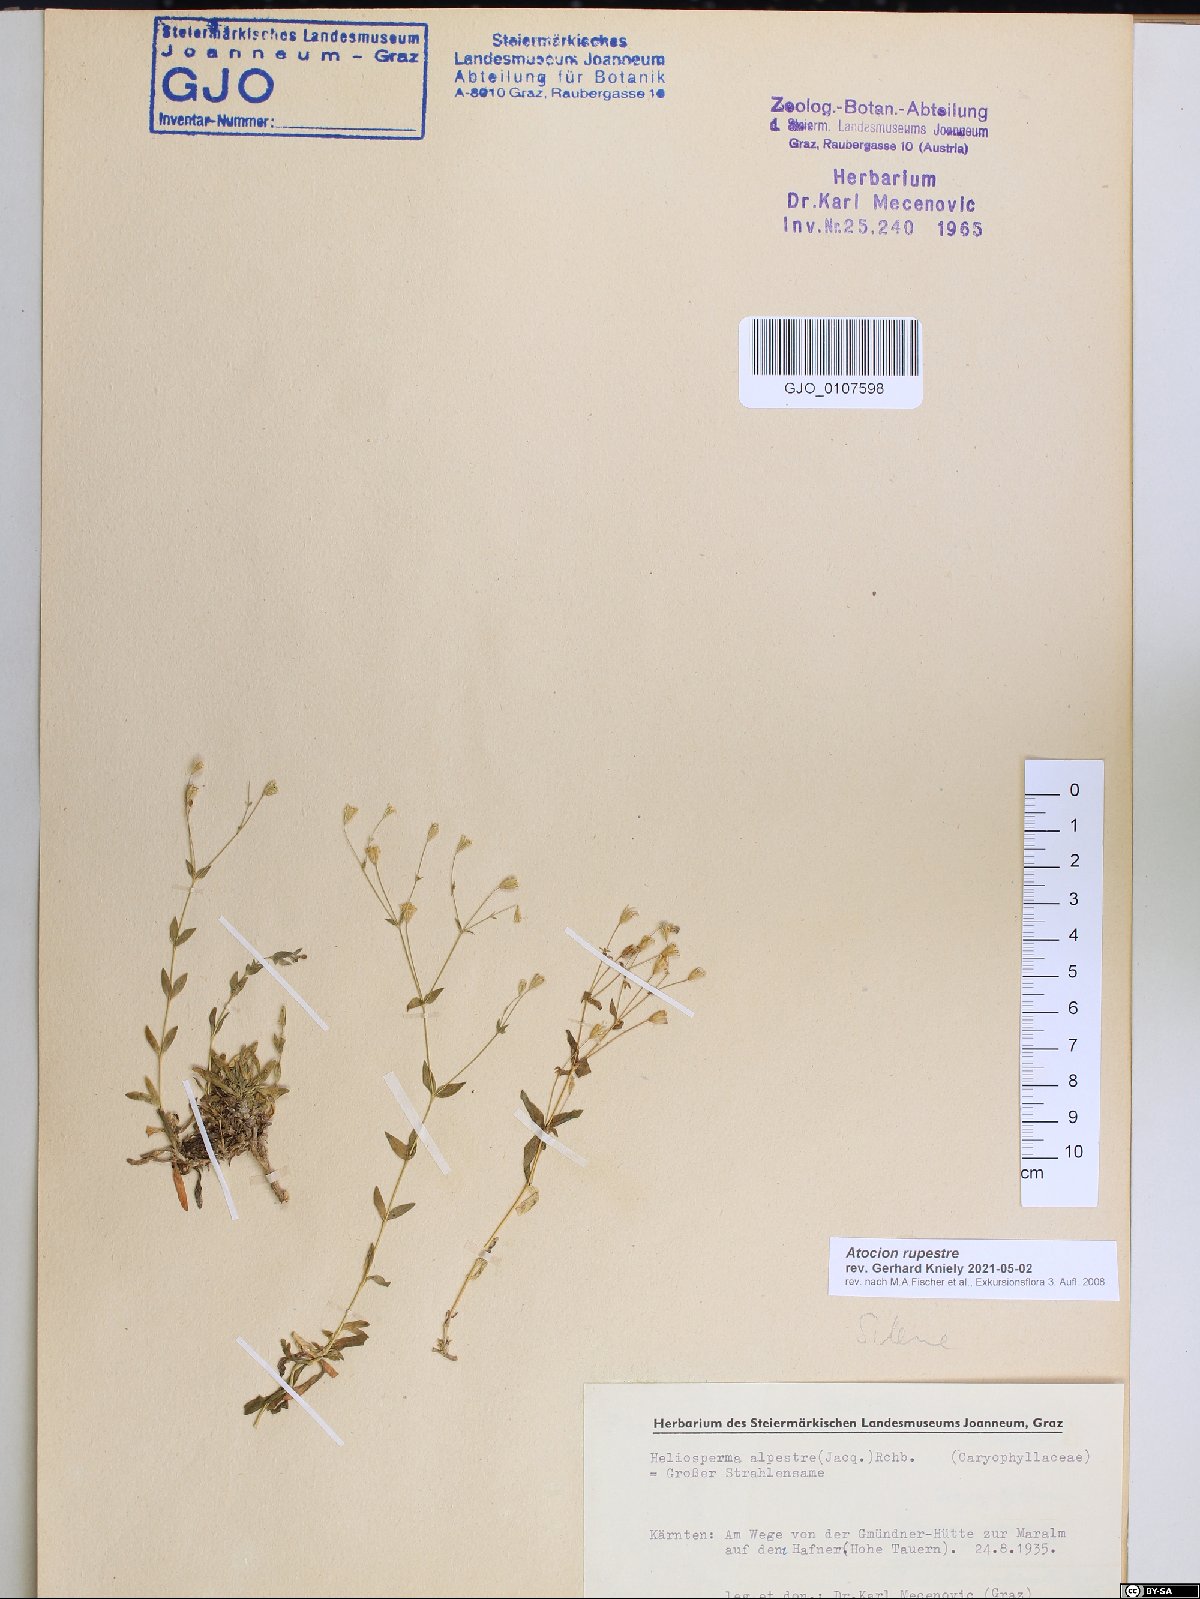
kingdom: Plantae
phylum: Tracheophyta
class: Magnoliopsida
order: Caryophyllales
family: Caryophyllaceae
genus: Atocion
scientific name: Atocion rupestre
